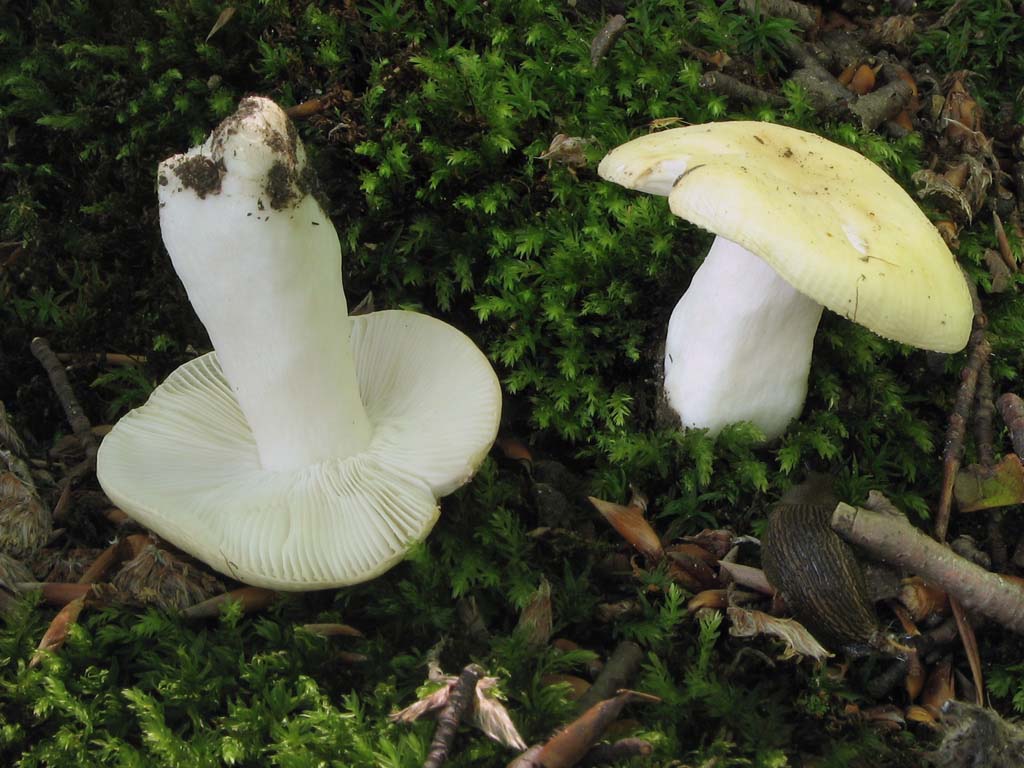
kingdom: Fungi
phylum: Basidiomycota
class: Agaricomycetes
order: Russulales
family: Russulaceae
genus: Russula
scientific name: Russula solaris
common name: sol-skørhat
